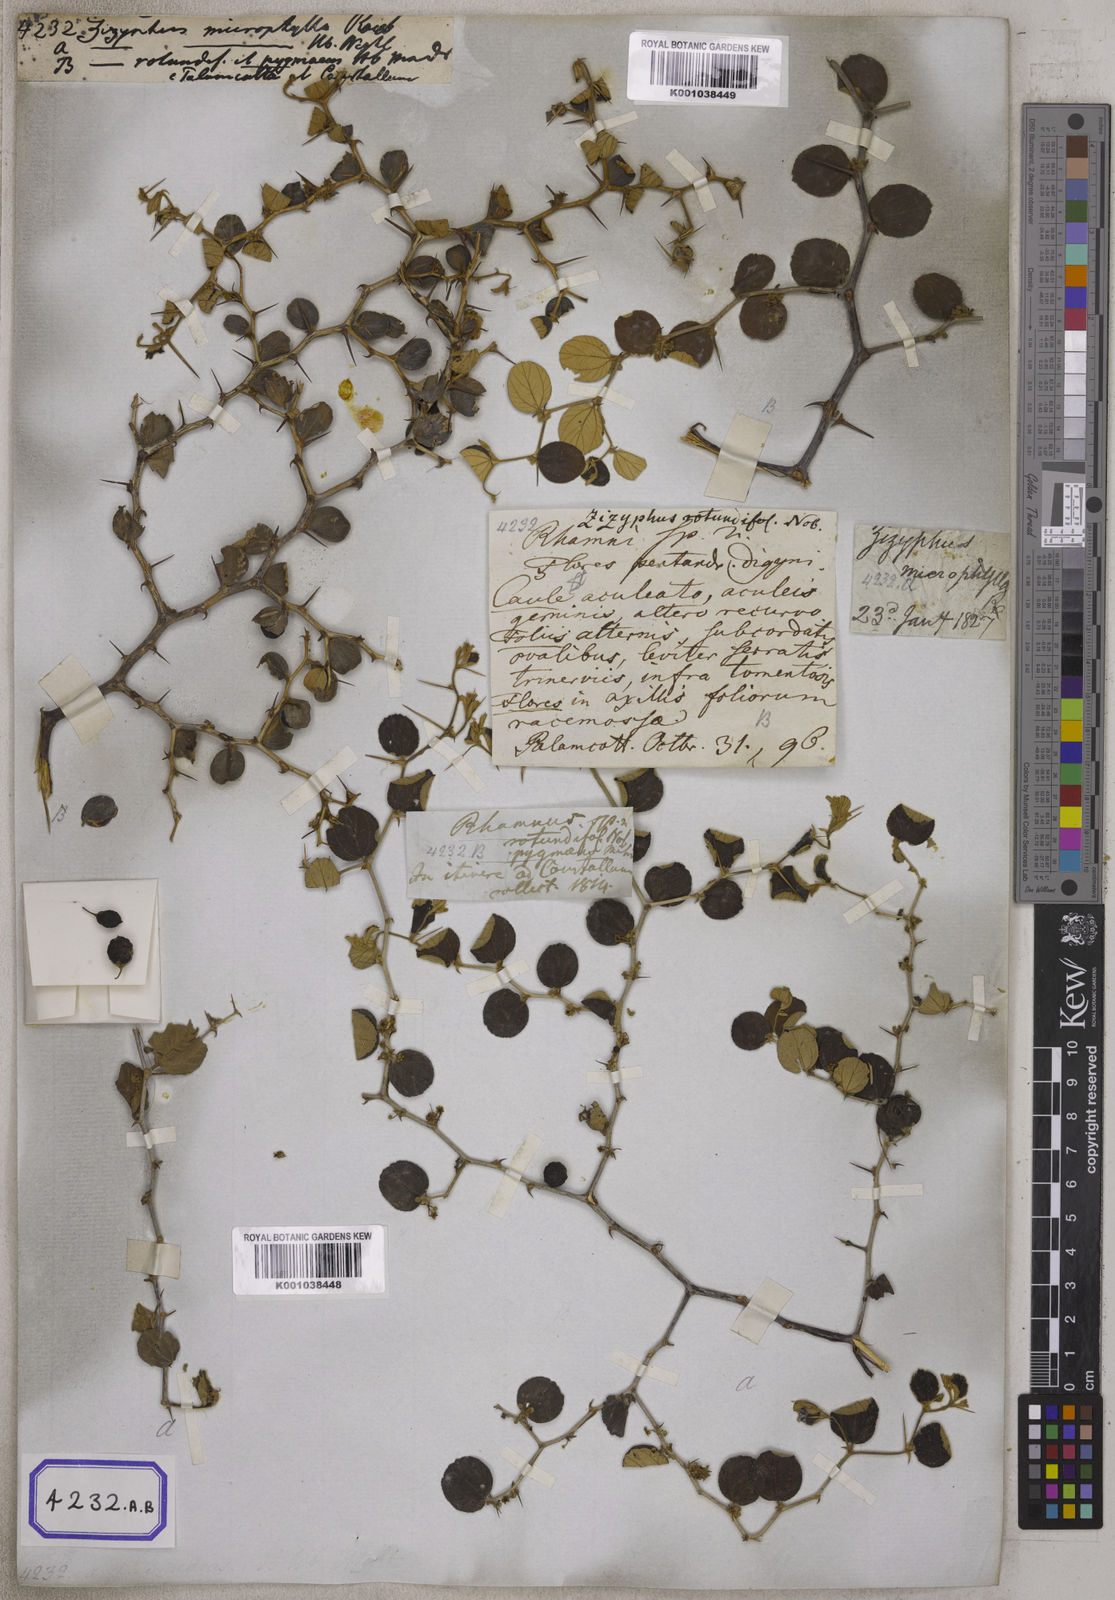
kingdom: Plantae
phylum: Tracheophyta
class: Magnoliopsida
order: Rosales
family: Rhamnaceae
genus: Ziziphus
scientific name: Ziziphus nummularia
